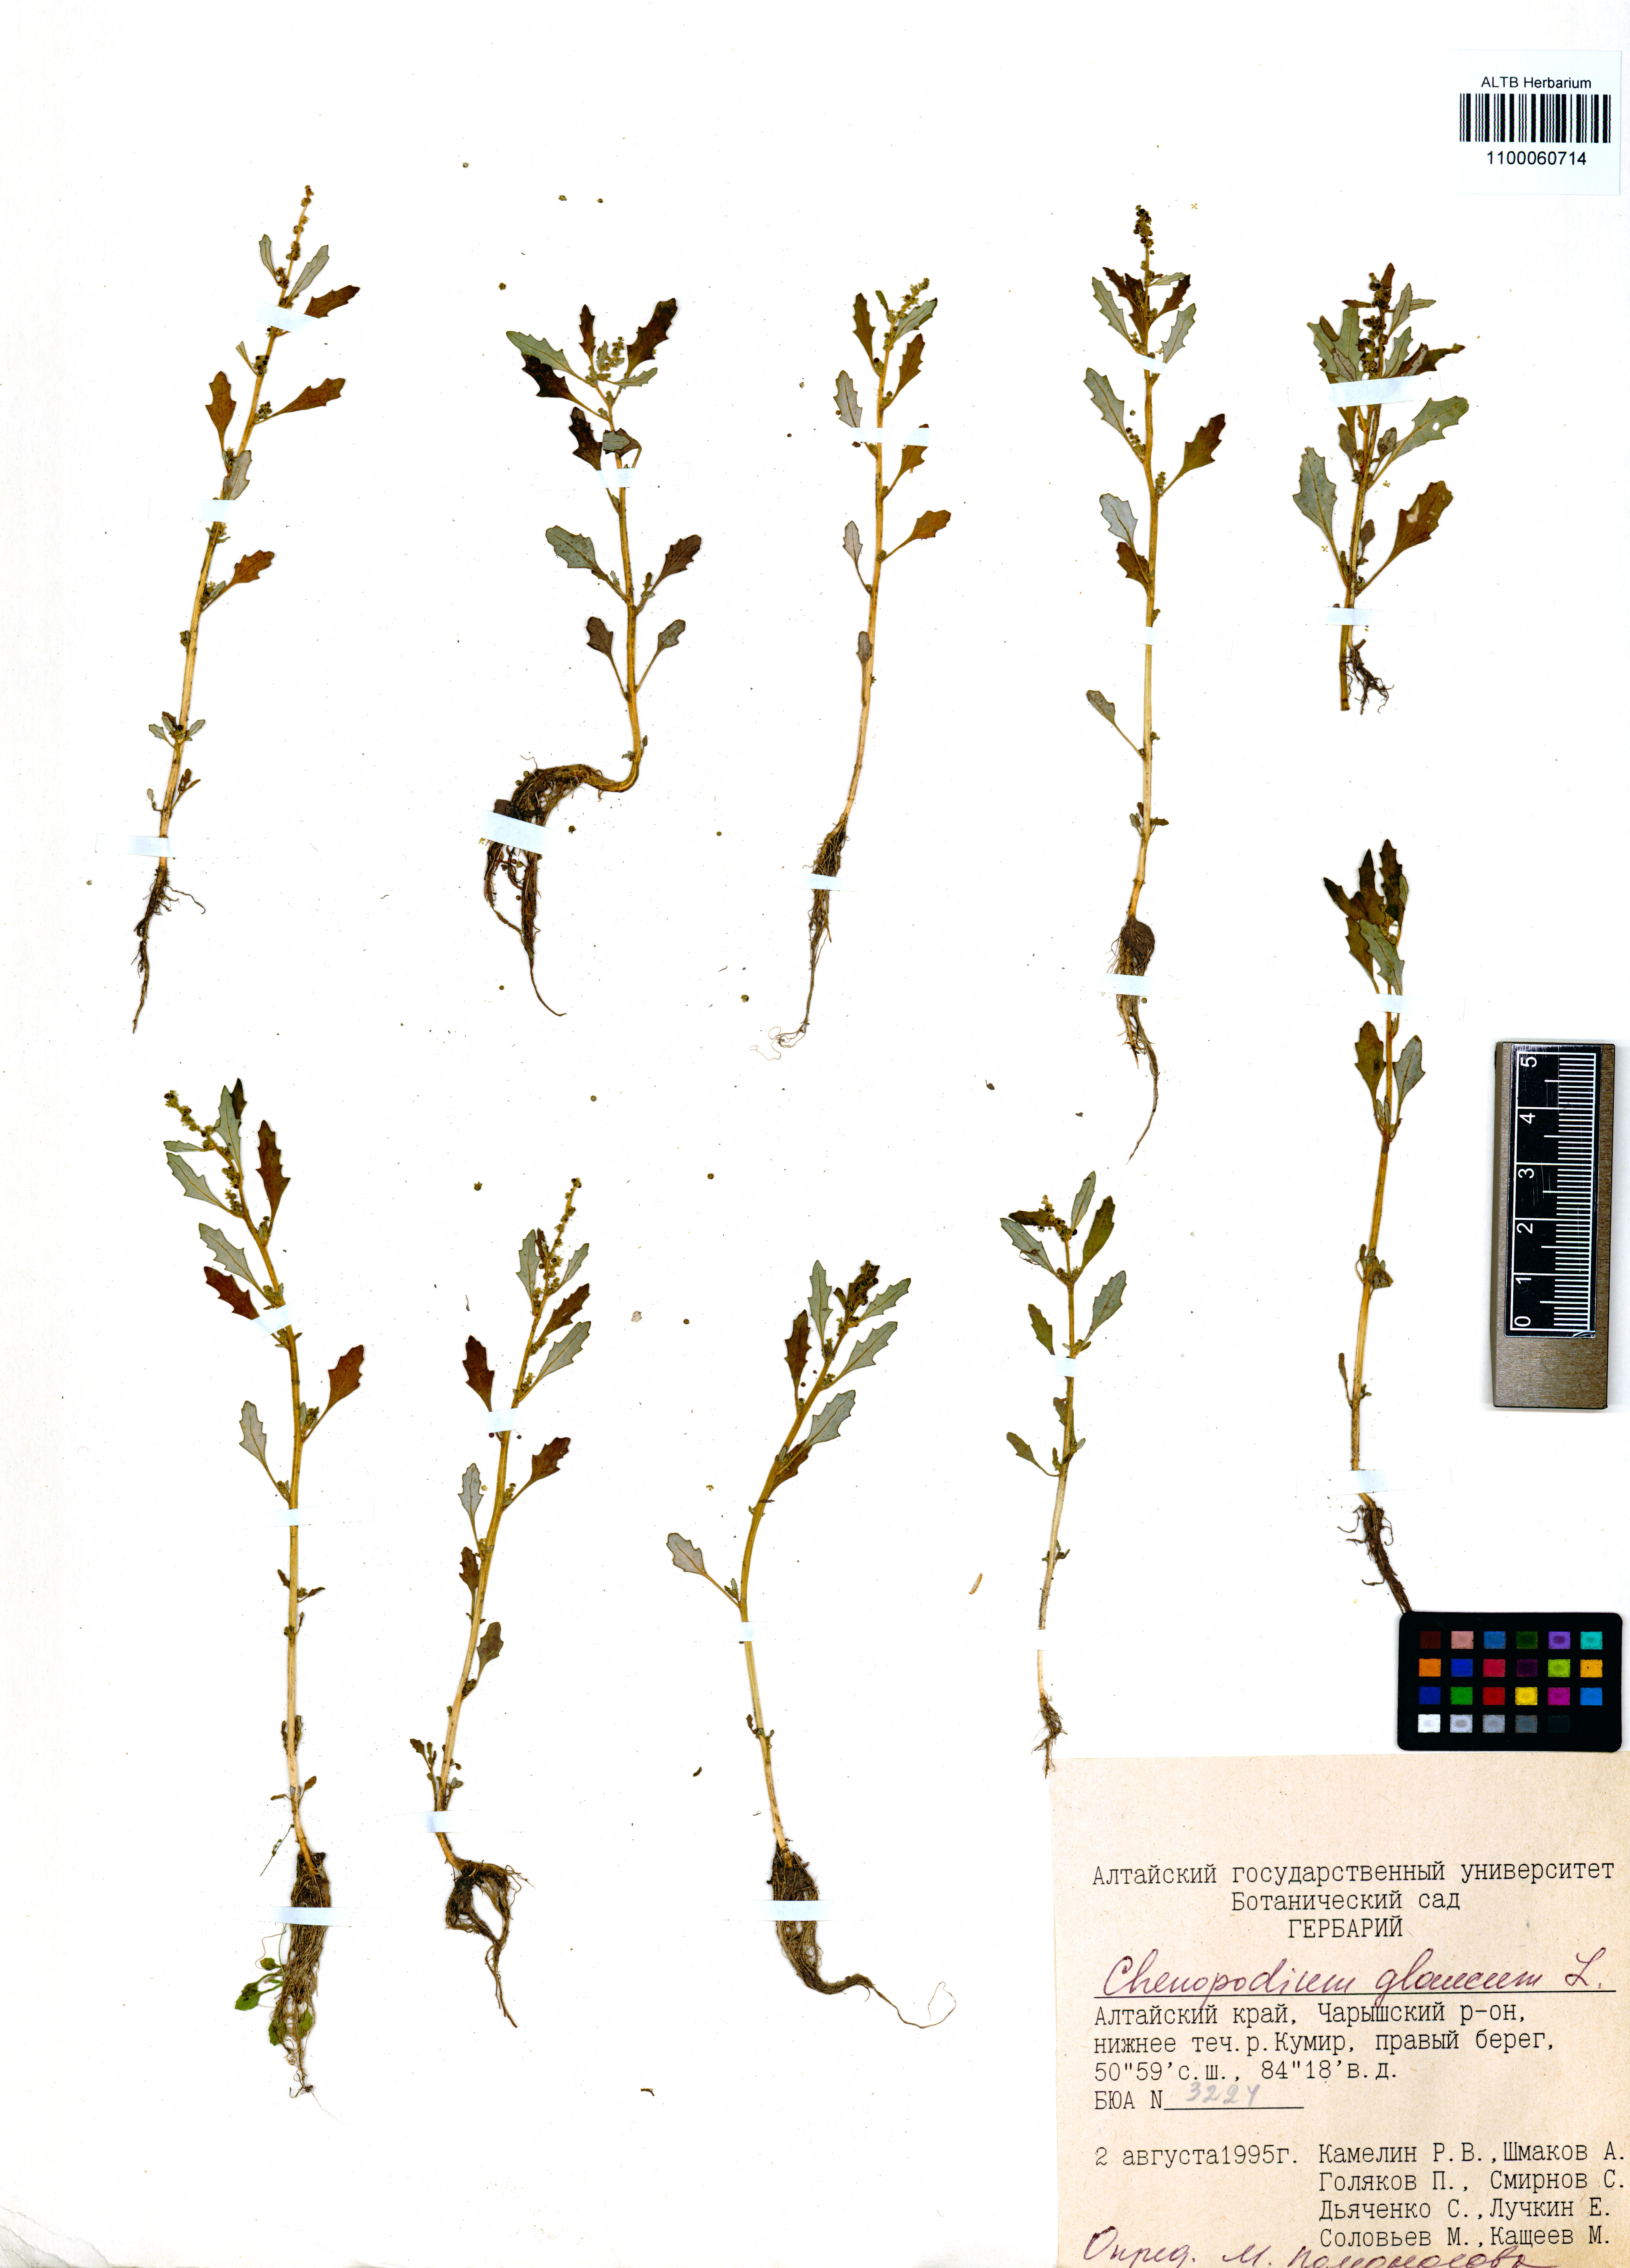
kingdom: Plantae
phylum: Tracheophyta
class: Magnoliopsida
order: Caryophyllales
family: Amaranthaceae
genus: Oxybasis
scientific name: Oxybasis glauca
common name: Glaucous goosefoot
